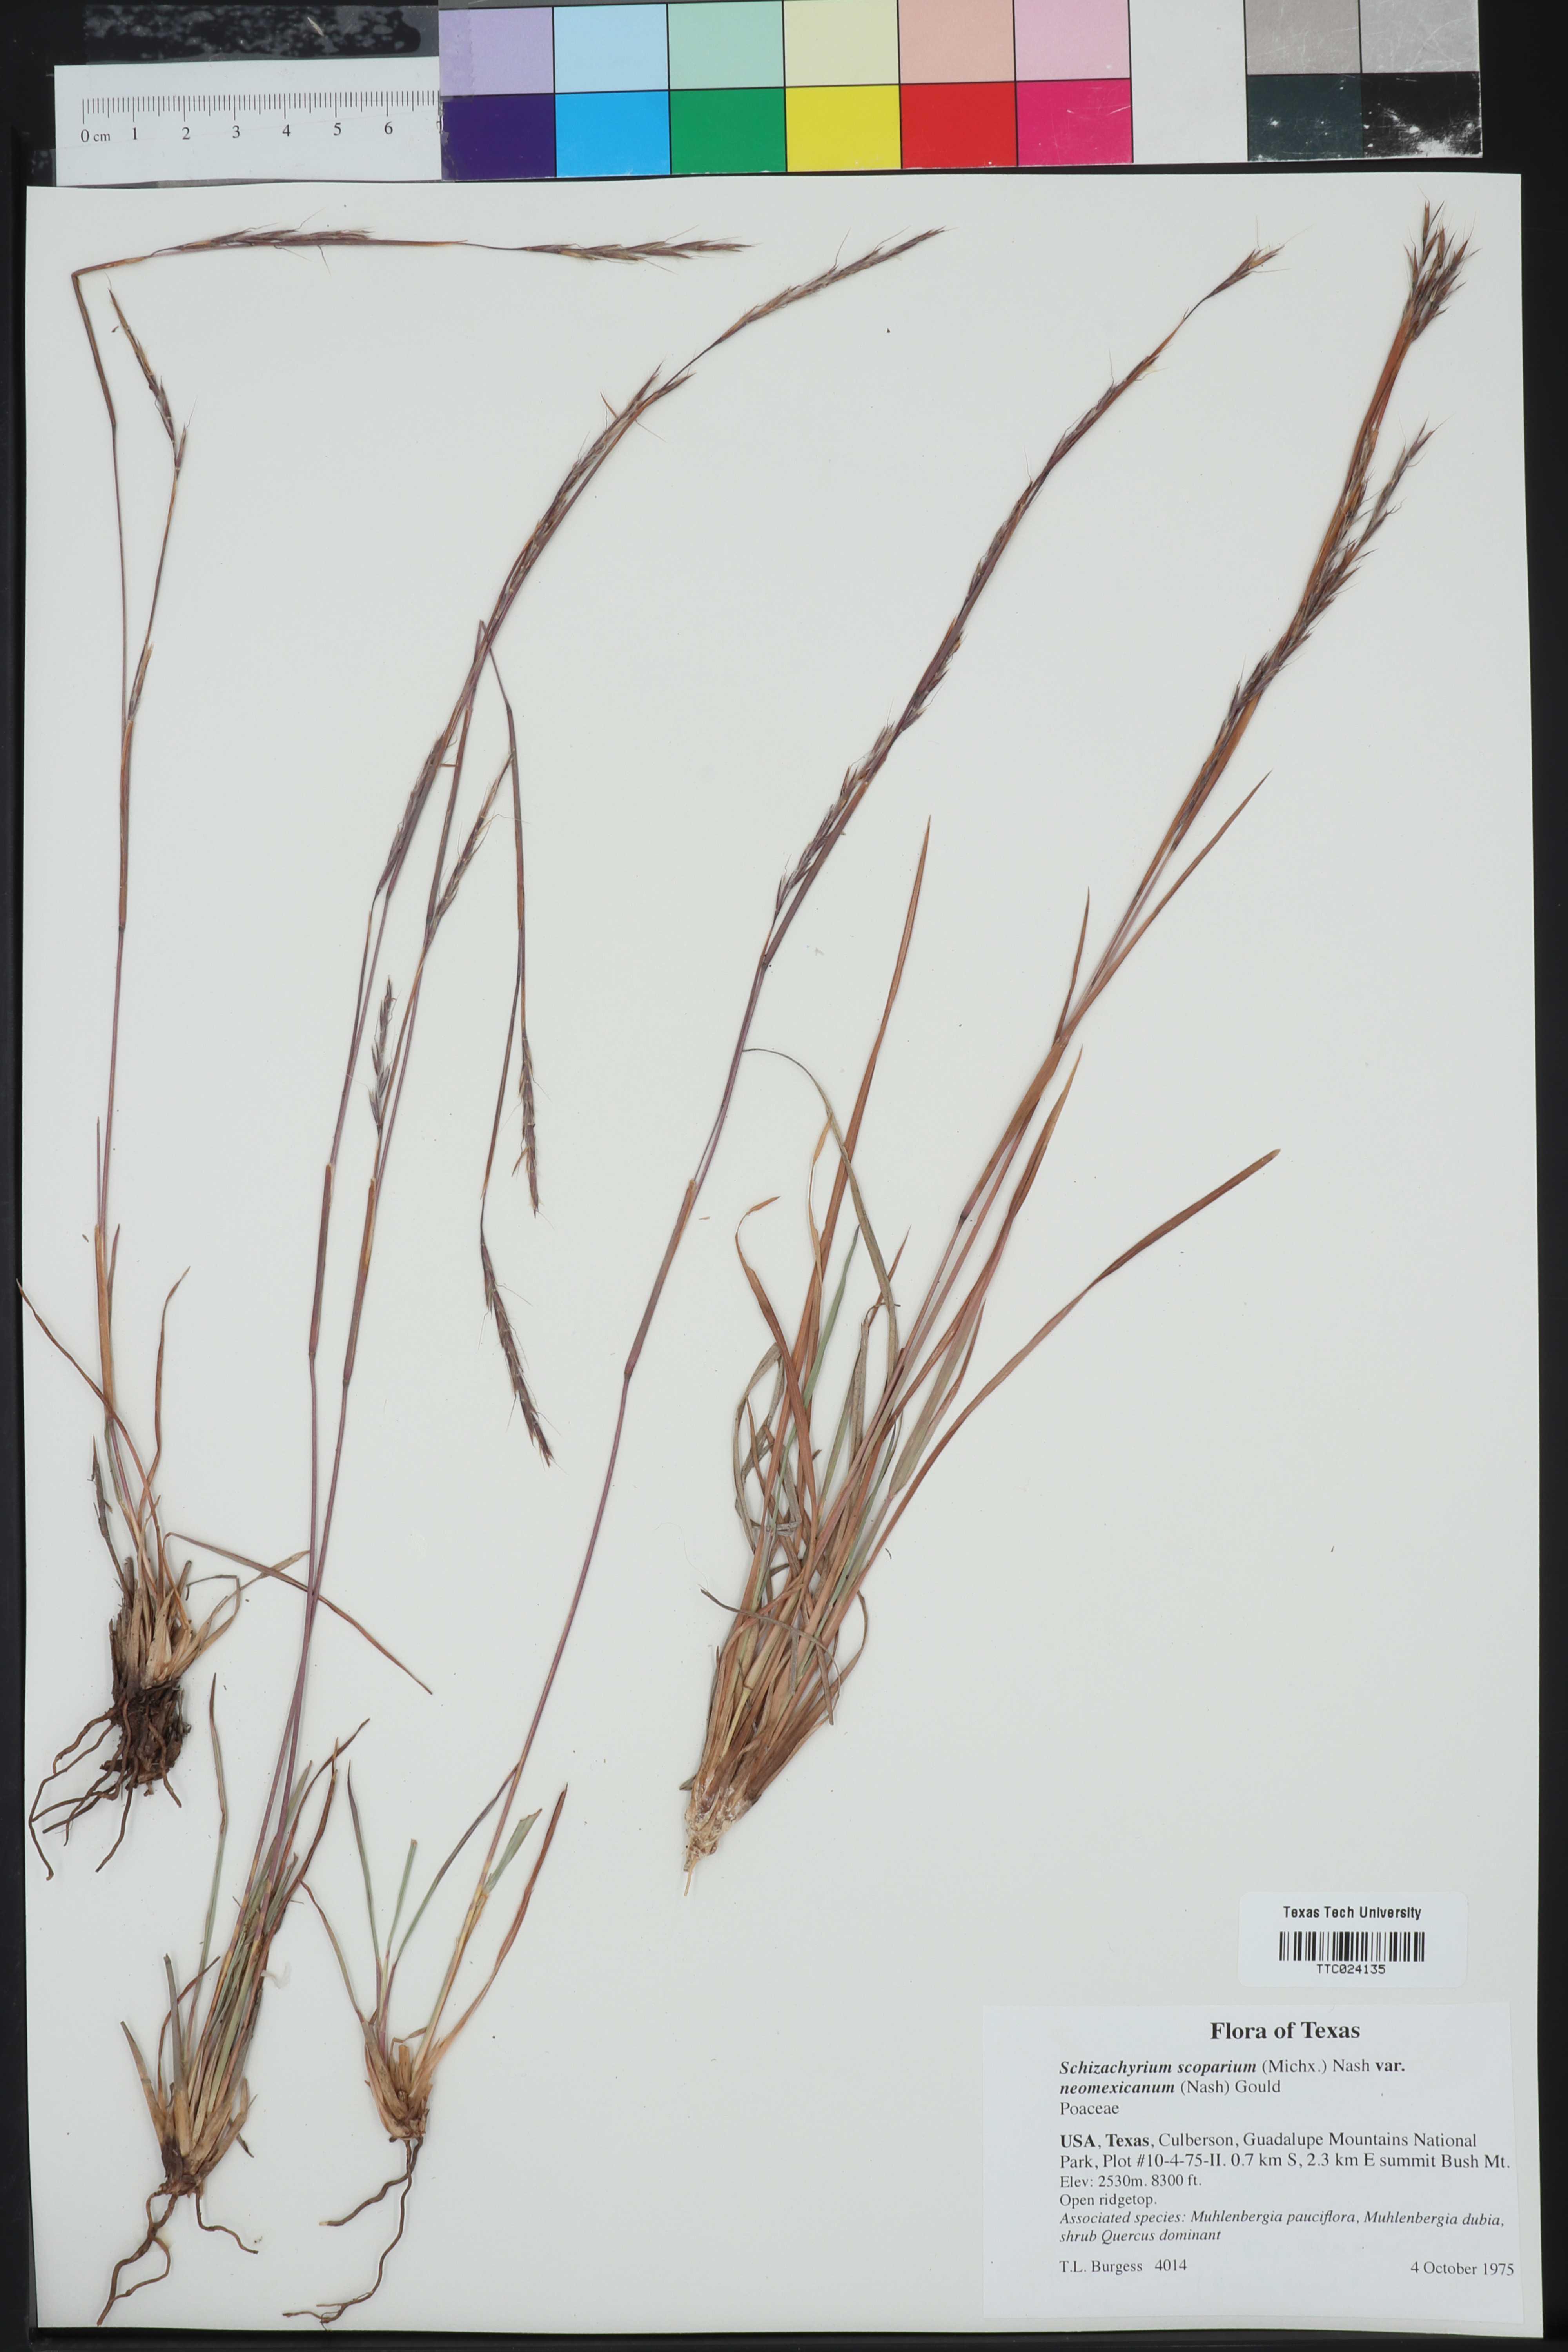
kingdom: Plantae
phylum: Tracheophyta
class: Liliopsida
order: Poales
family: Poaceae
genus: Schizachyrium
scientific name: Schizachyrium scoparium
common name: Little bluestem
